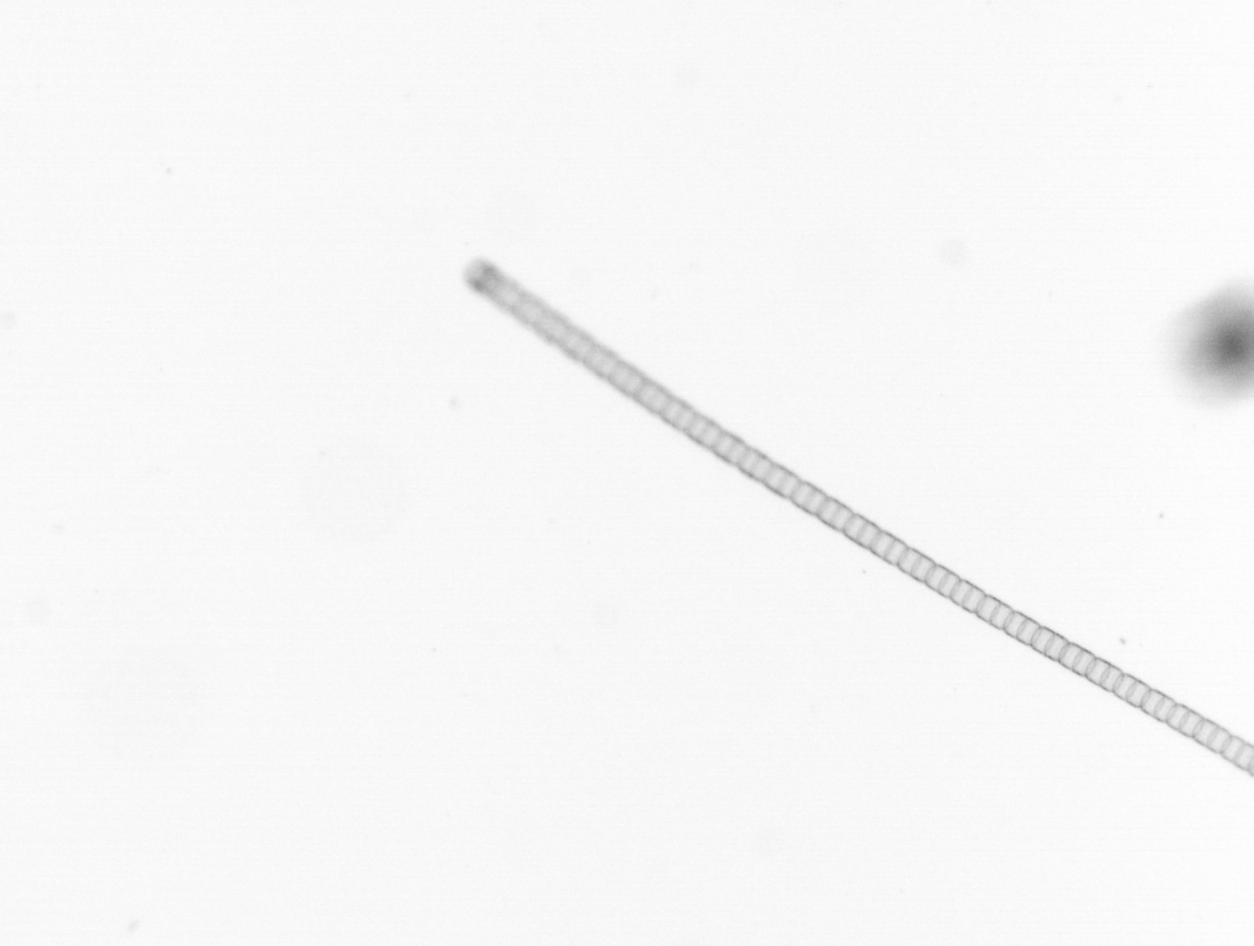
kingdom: Chromista
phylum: Ochrophyta
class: Bacillariophyceae
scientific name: Bacillariophyceae
